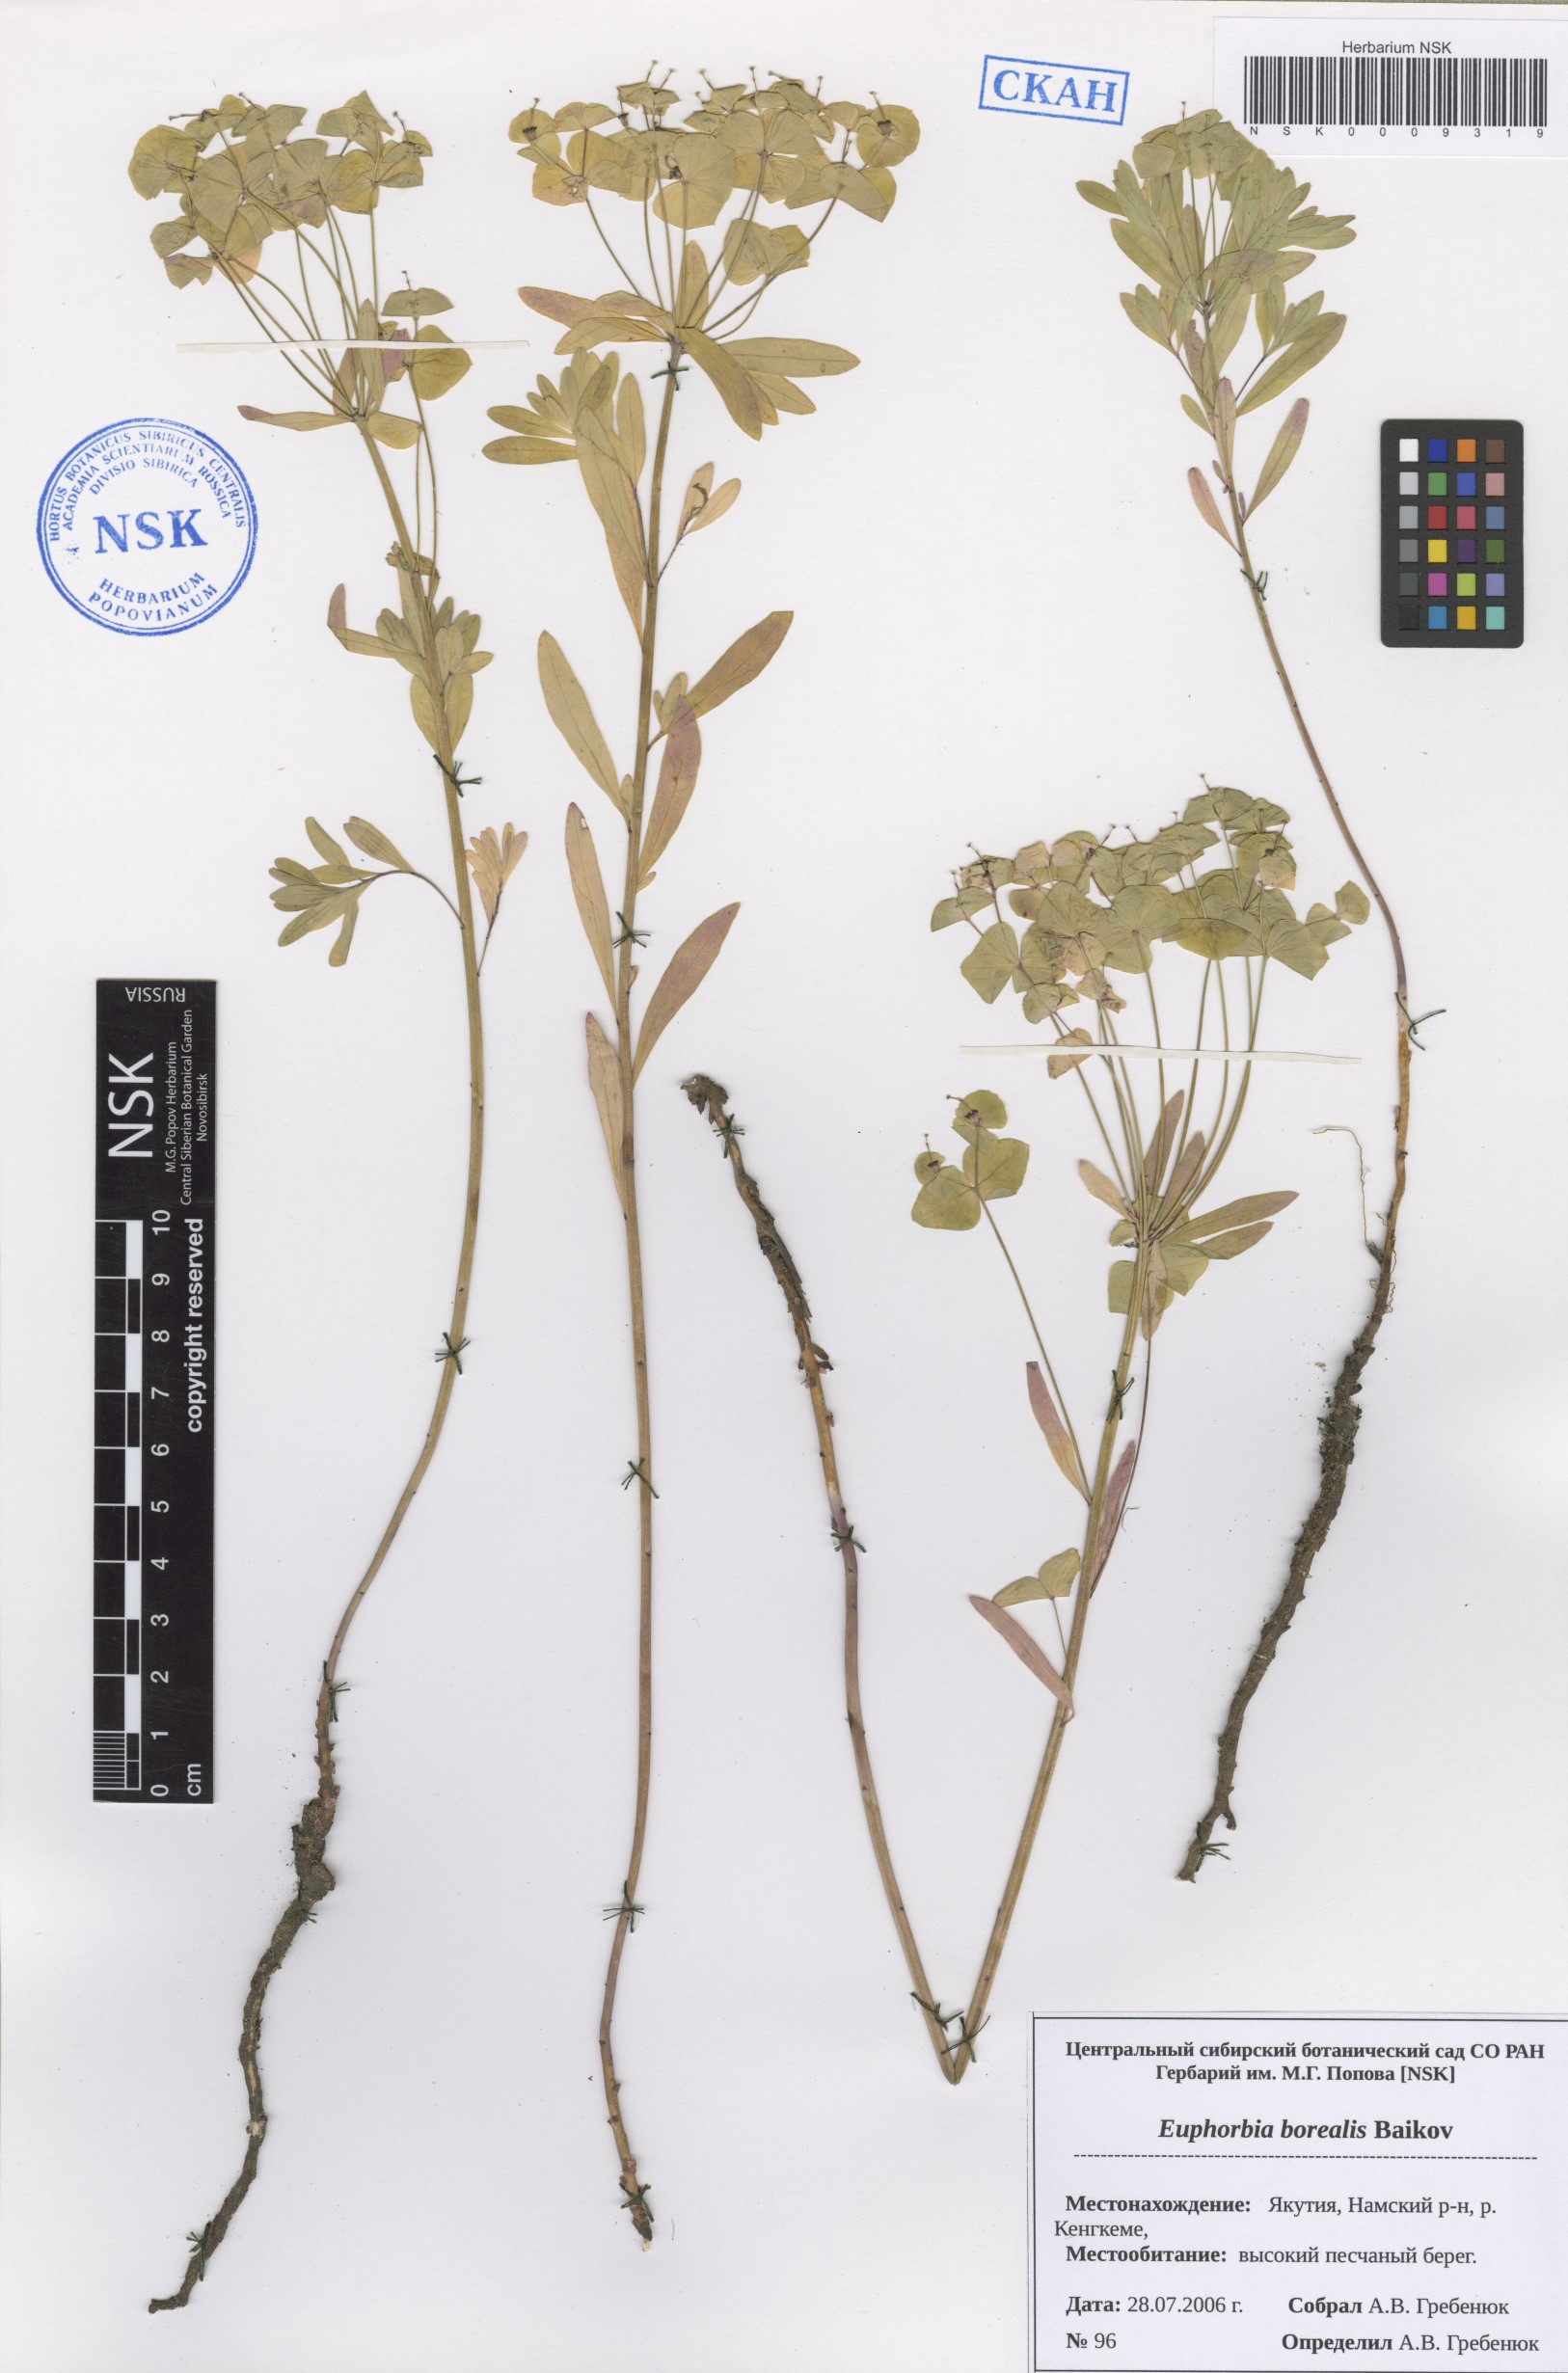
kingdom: Plantae
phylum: Tracheophyta
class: Magnoliopsida
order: Malpighiales
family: Euphorbiaceae
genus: Euphorbia
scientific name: Euphorbia borealis
